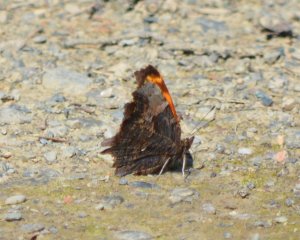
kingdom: Animalia
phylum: Arthropoda
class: Insecta
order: Lepidoptera
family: Nymphalidae
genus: Polygonia
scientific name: Polygonia progne
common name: Gray Comma
